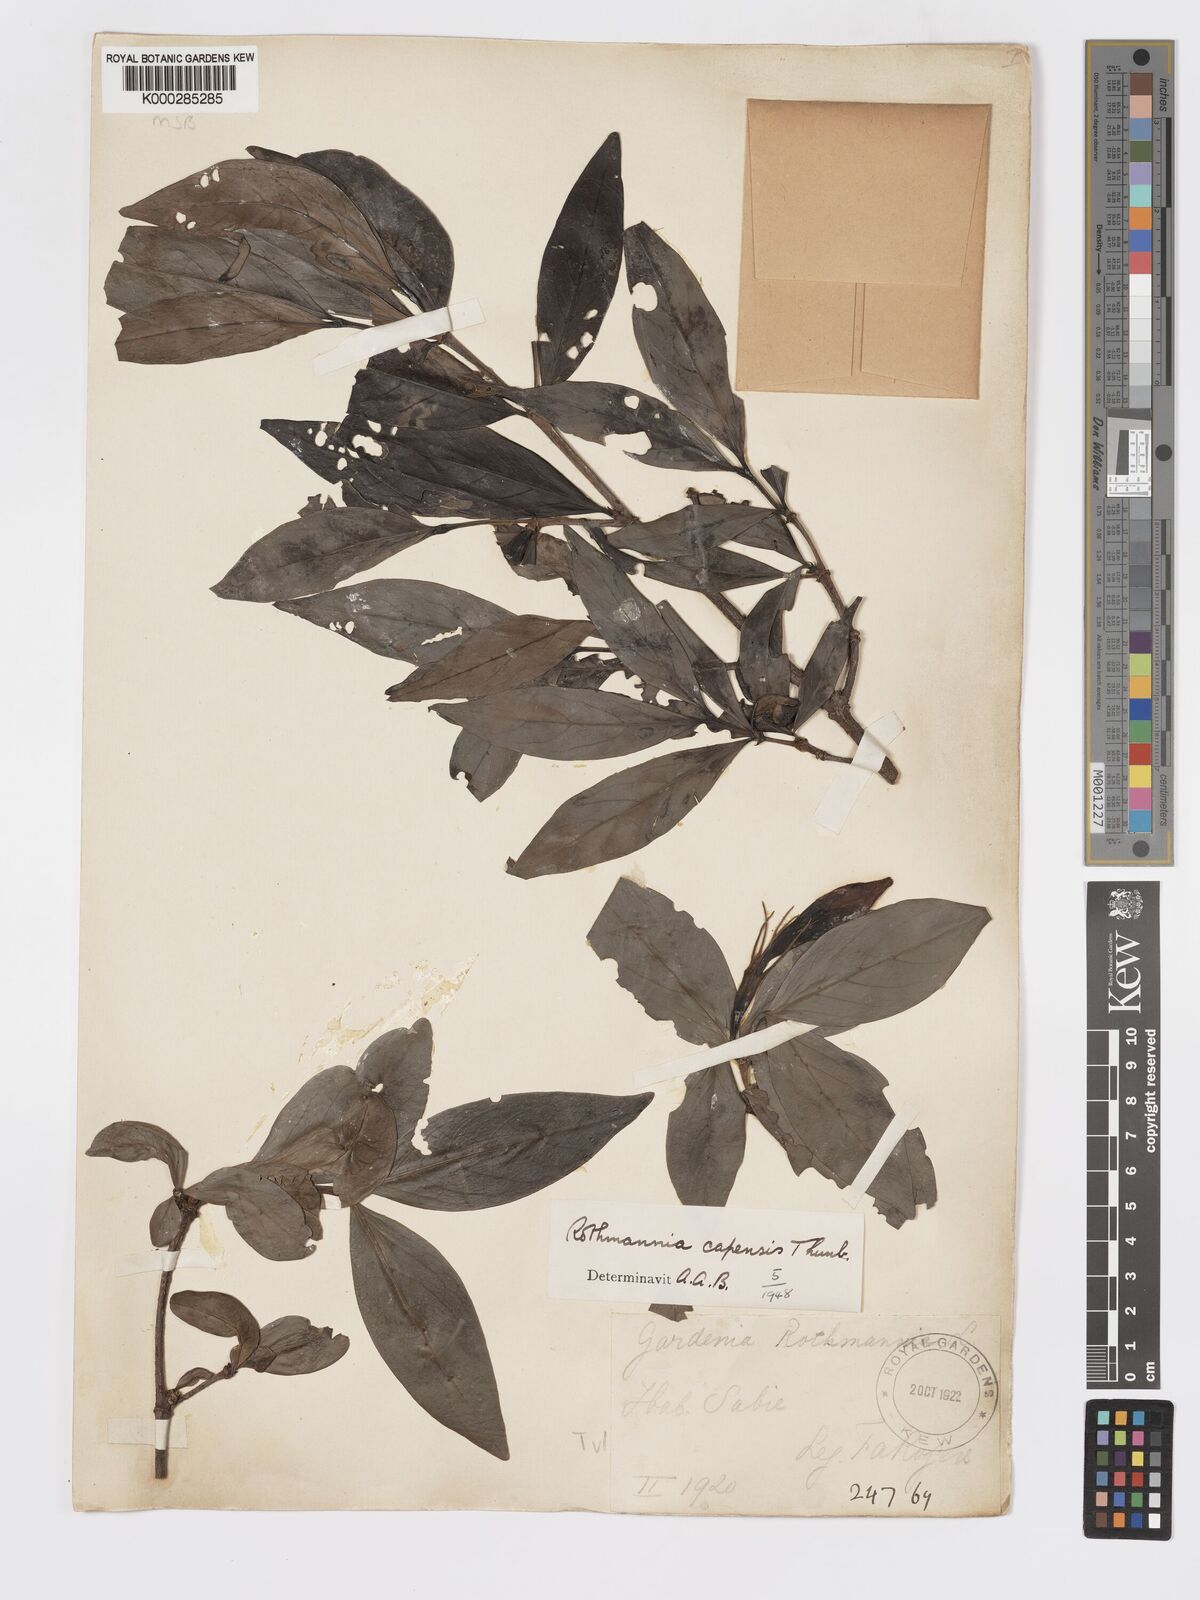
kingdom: Plantae
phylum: Tracheophyta
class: Magnoliopsida
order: Gentianales
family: Rubiaceae
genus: Rothmannia
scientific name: Rothmannia capensis
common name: Cape gardenia
